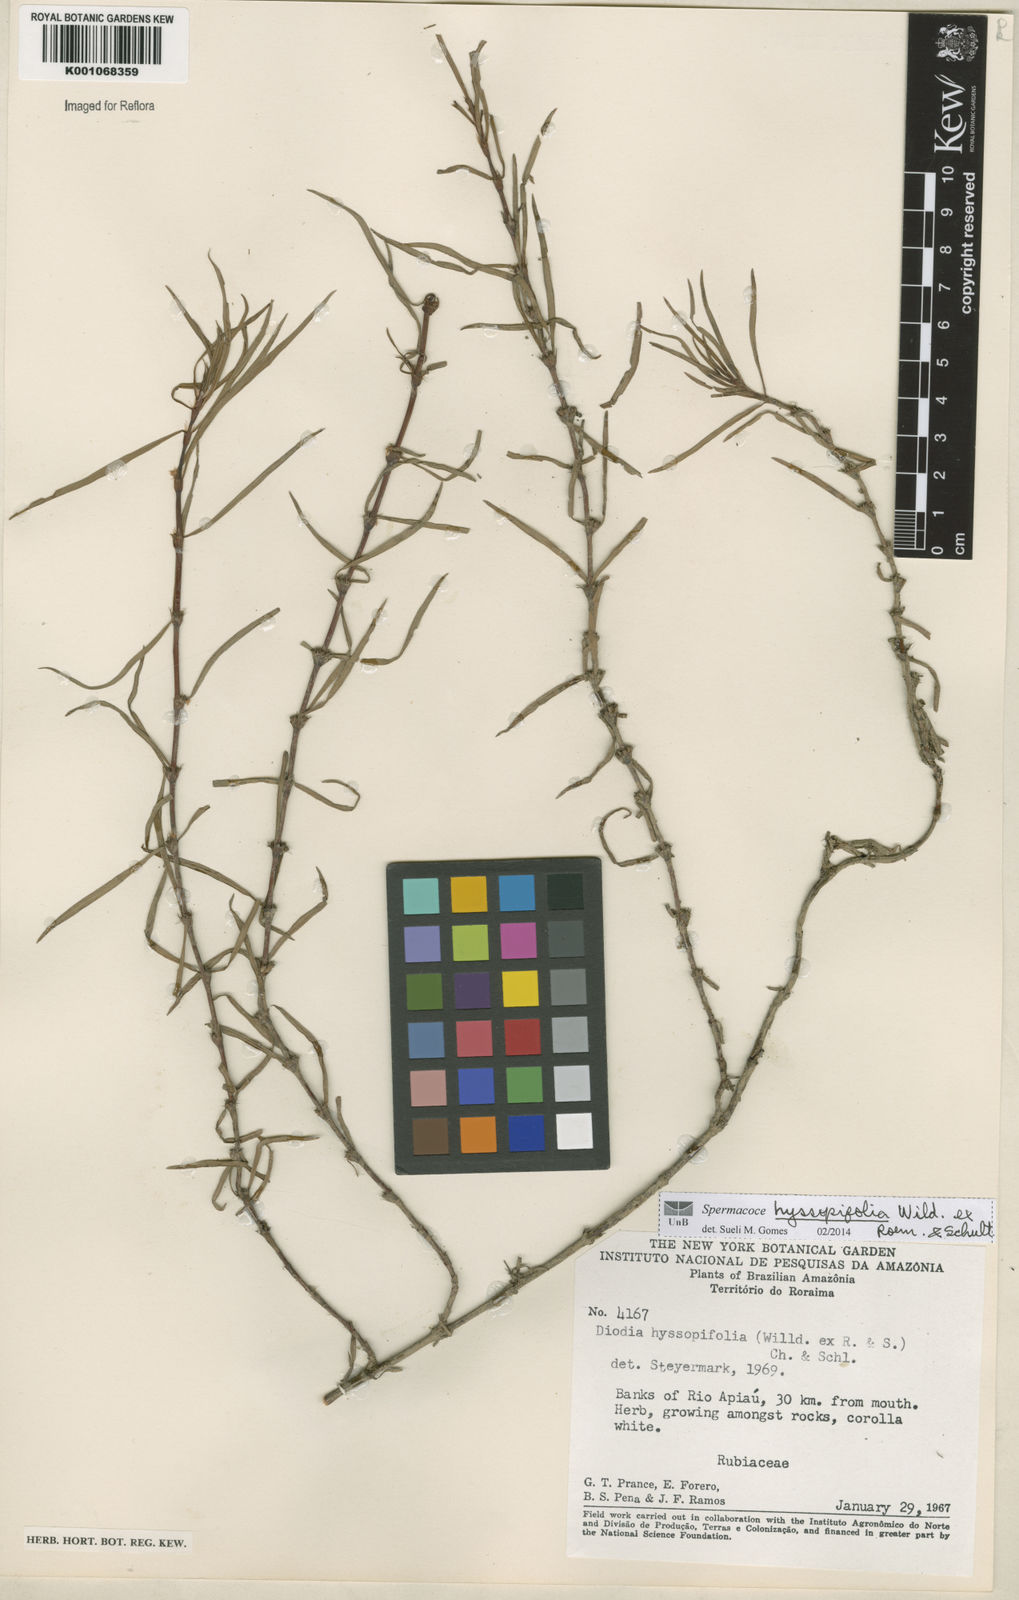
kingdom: Plantae
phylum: Tracheophyta
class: Magnoliopsida
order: Gentianales
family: Rubiaceae
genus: Spermacoce
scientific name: Spermacoce
